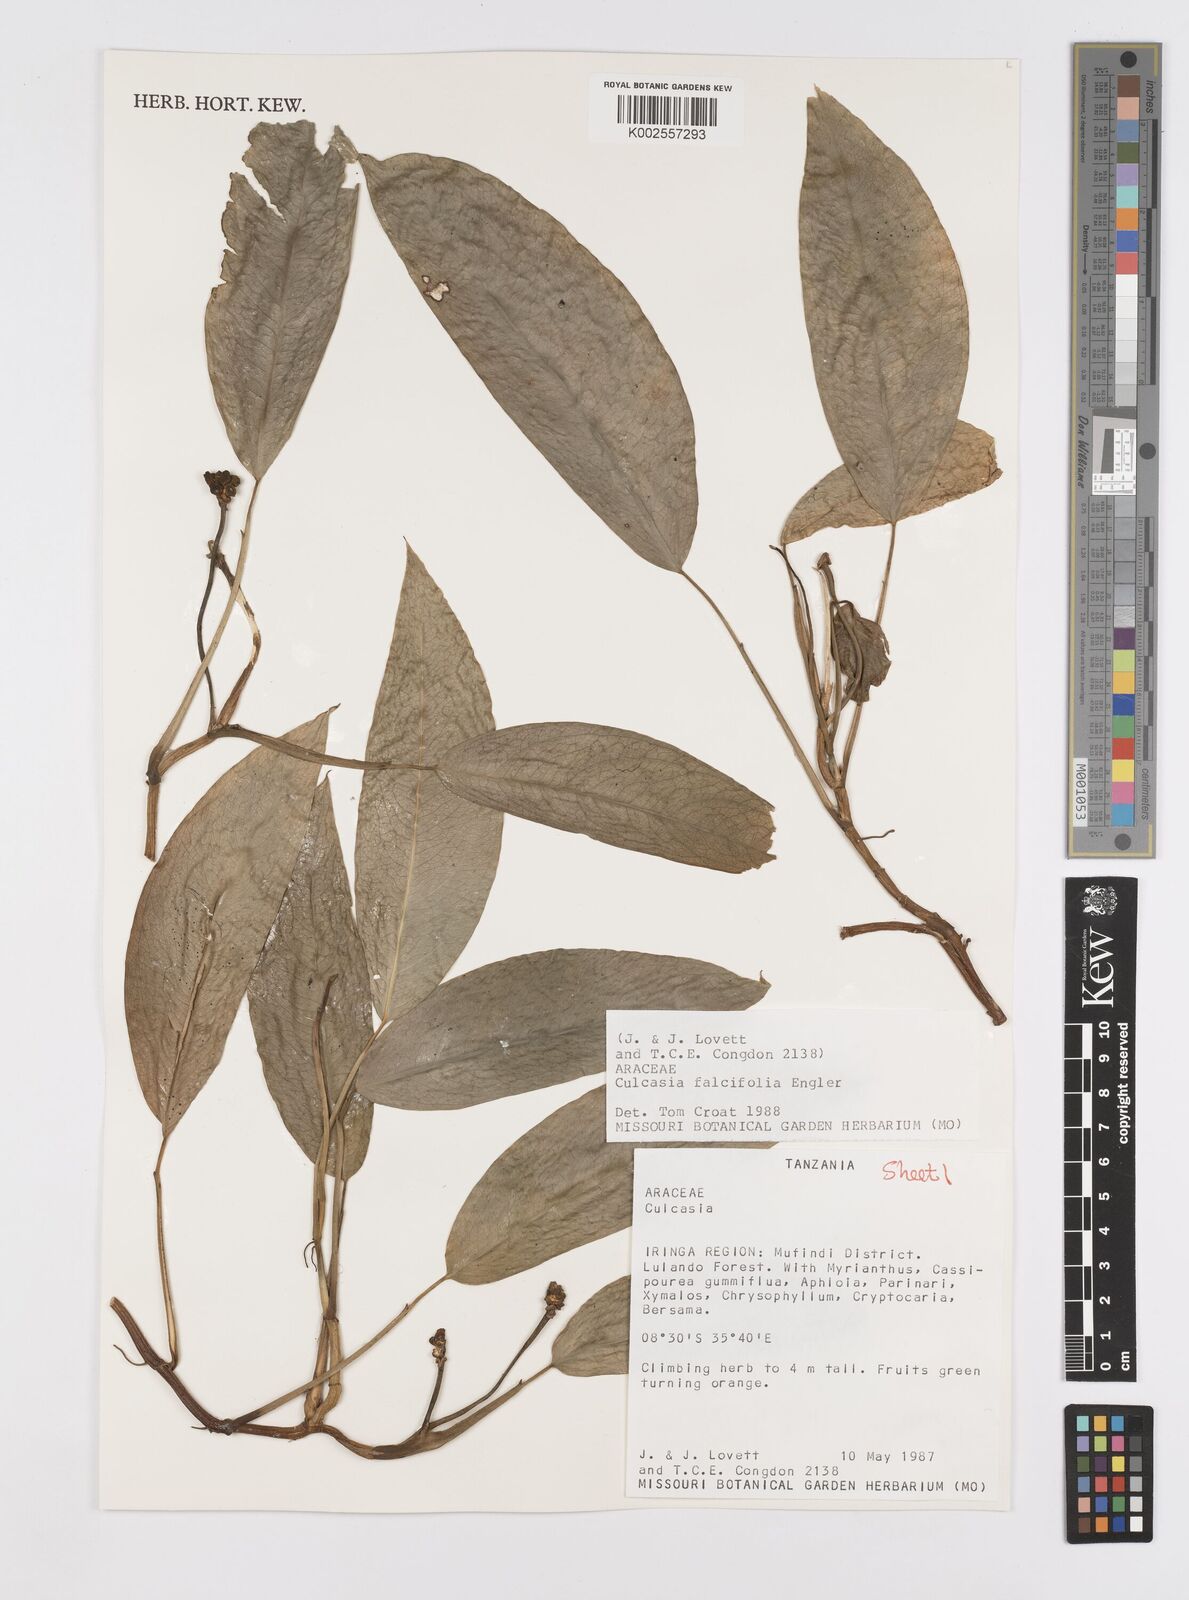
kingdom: Plantae
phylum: Tracheophyta
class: Liliopsida
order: Alismatales
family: Araceae
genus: Culcasia
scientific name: Culcasia falcifolia
